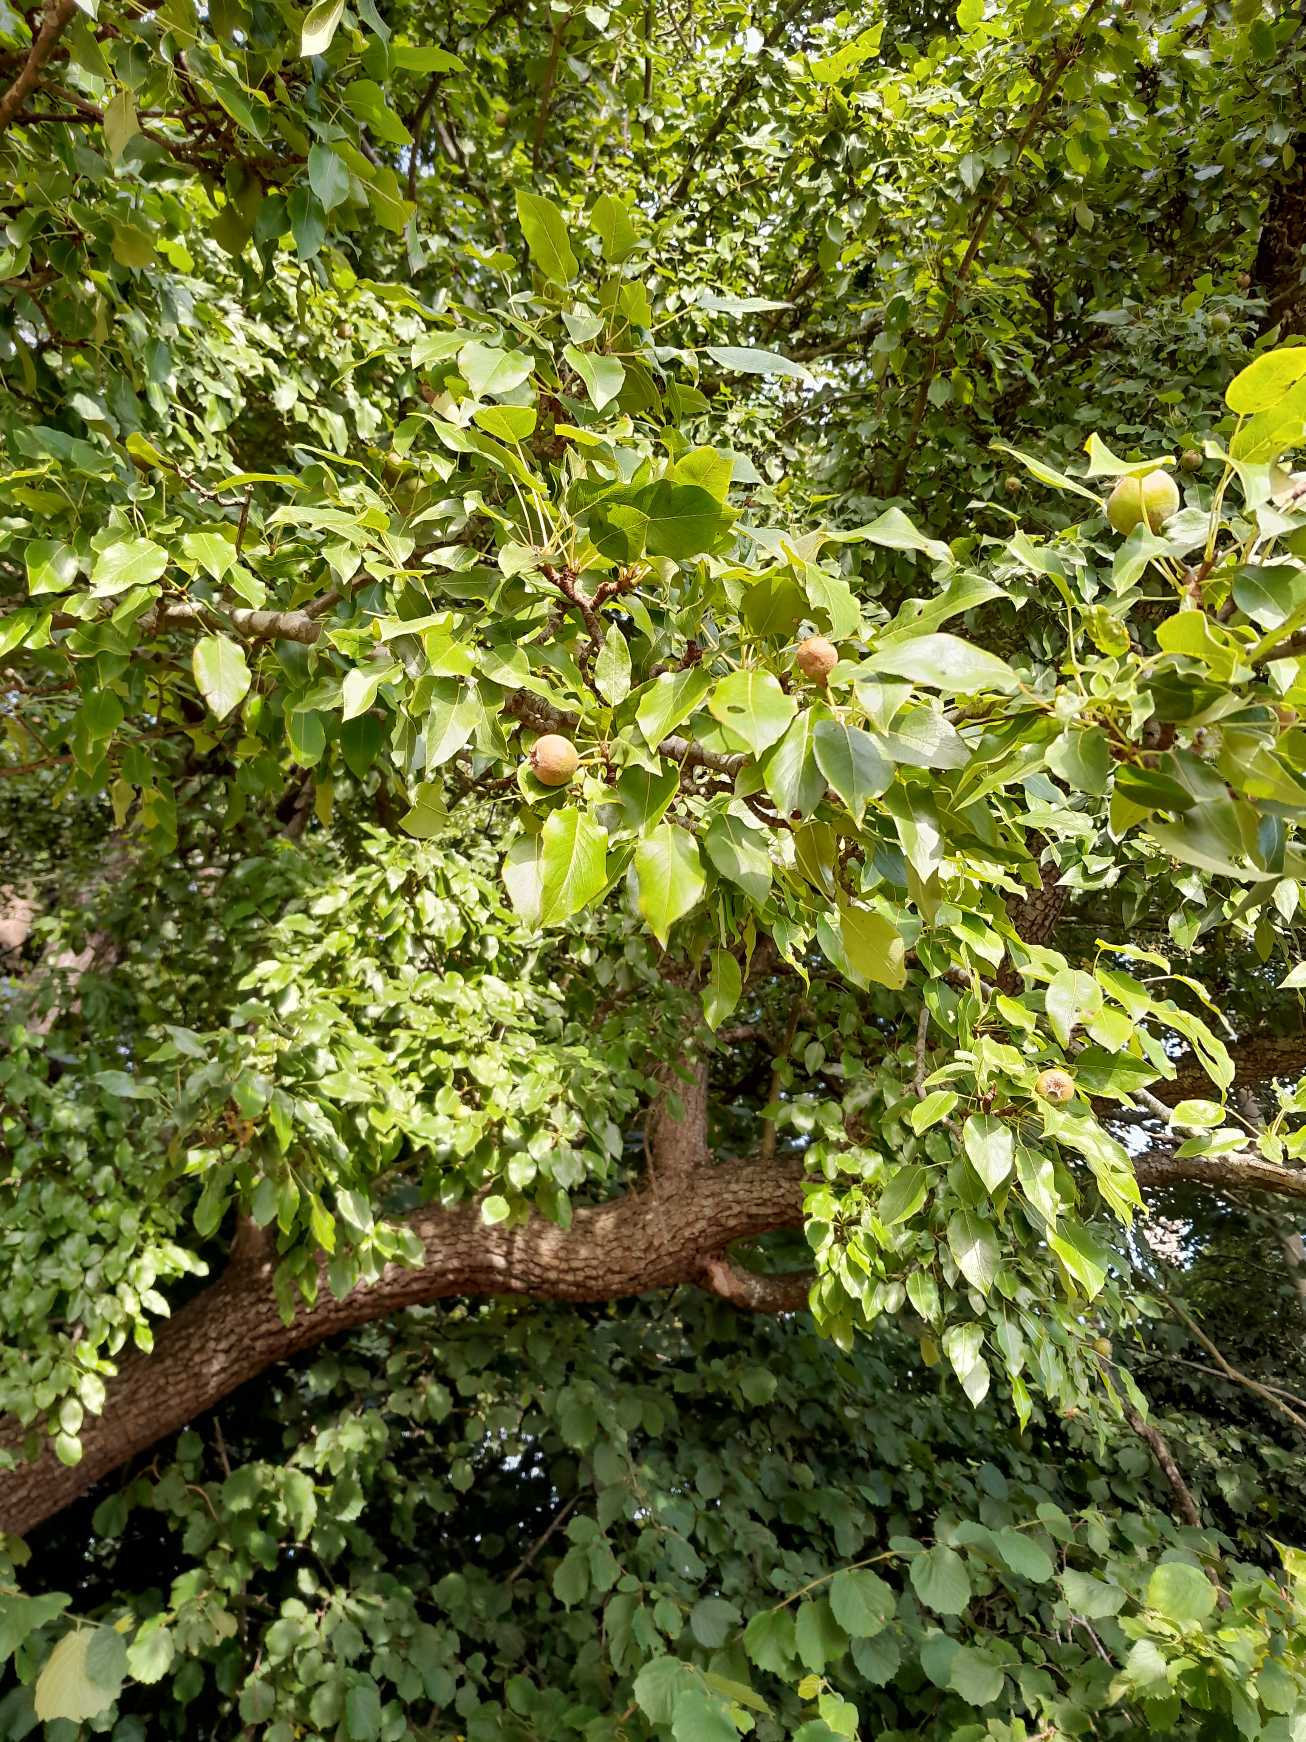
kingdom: Plantae
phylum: Tracheophyta
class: Magnoliopsida
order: Rosales
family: Rosaceae
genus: Pyrus
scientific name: Pyrus communis
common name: Pære
